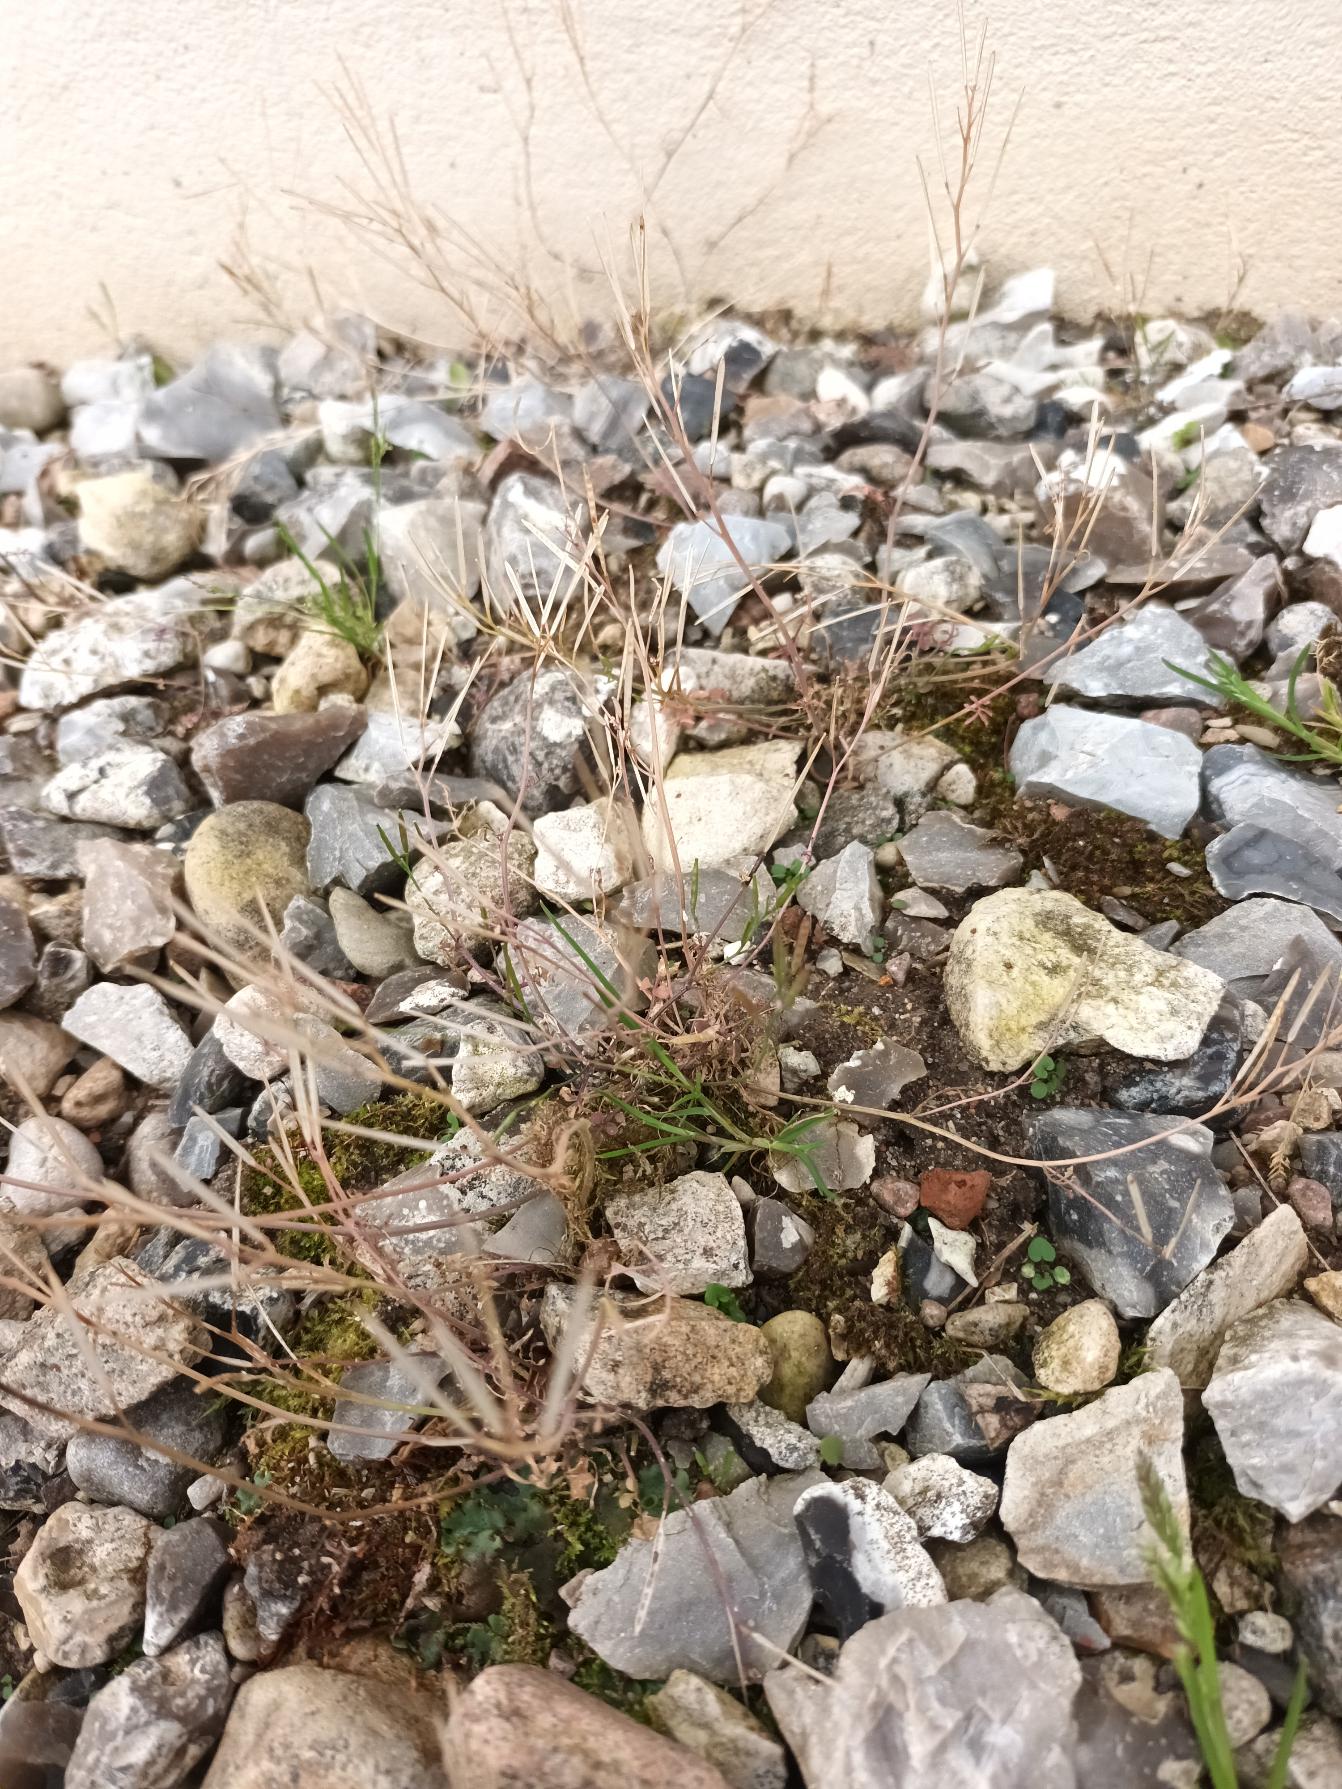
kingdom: Plantae
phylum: Tracheophyta
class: Magnoliopsida
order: Brassicales
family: Brassicaceae
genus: Cardamine
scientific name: Cardamine hirsuta
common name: Roset-springklap
